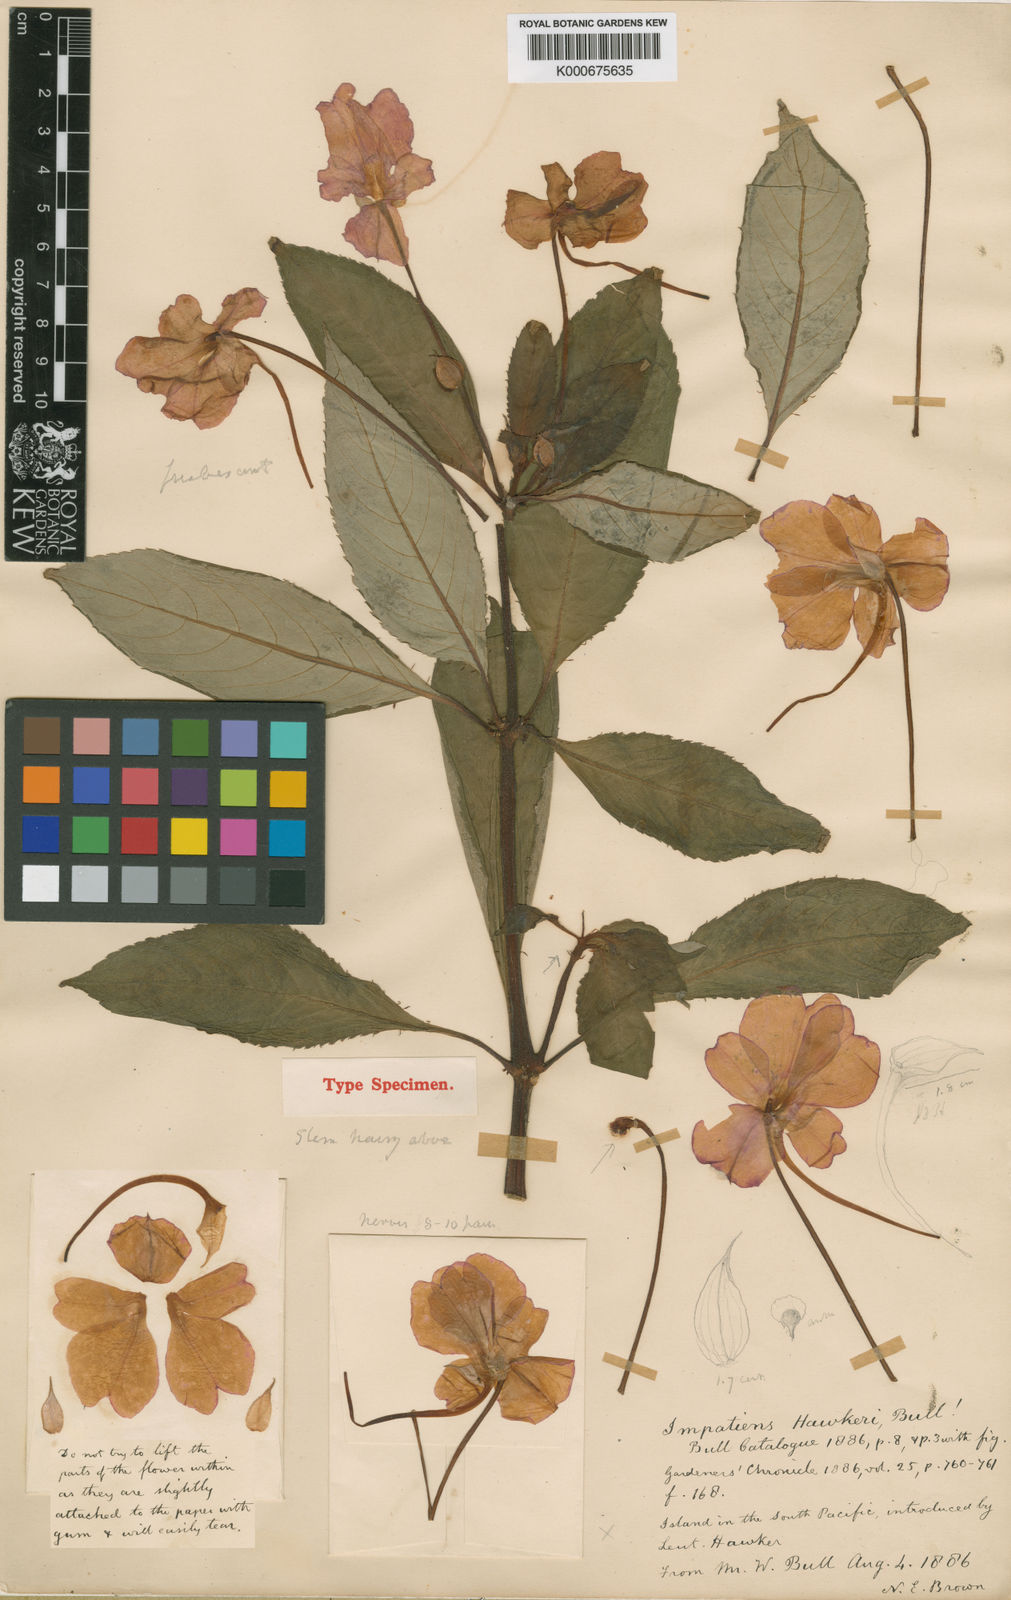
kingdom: Plantae
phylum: Tracheophyta
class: Magnoliopsida
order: Ericales
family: Balsaminaceae
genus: Impatiens
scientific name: Impatiens hawkeri
